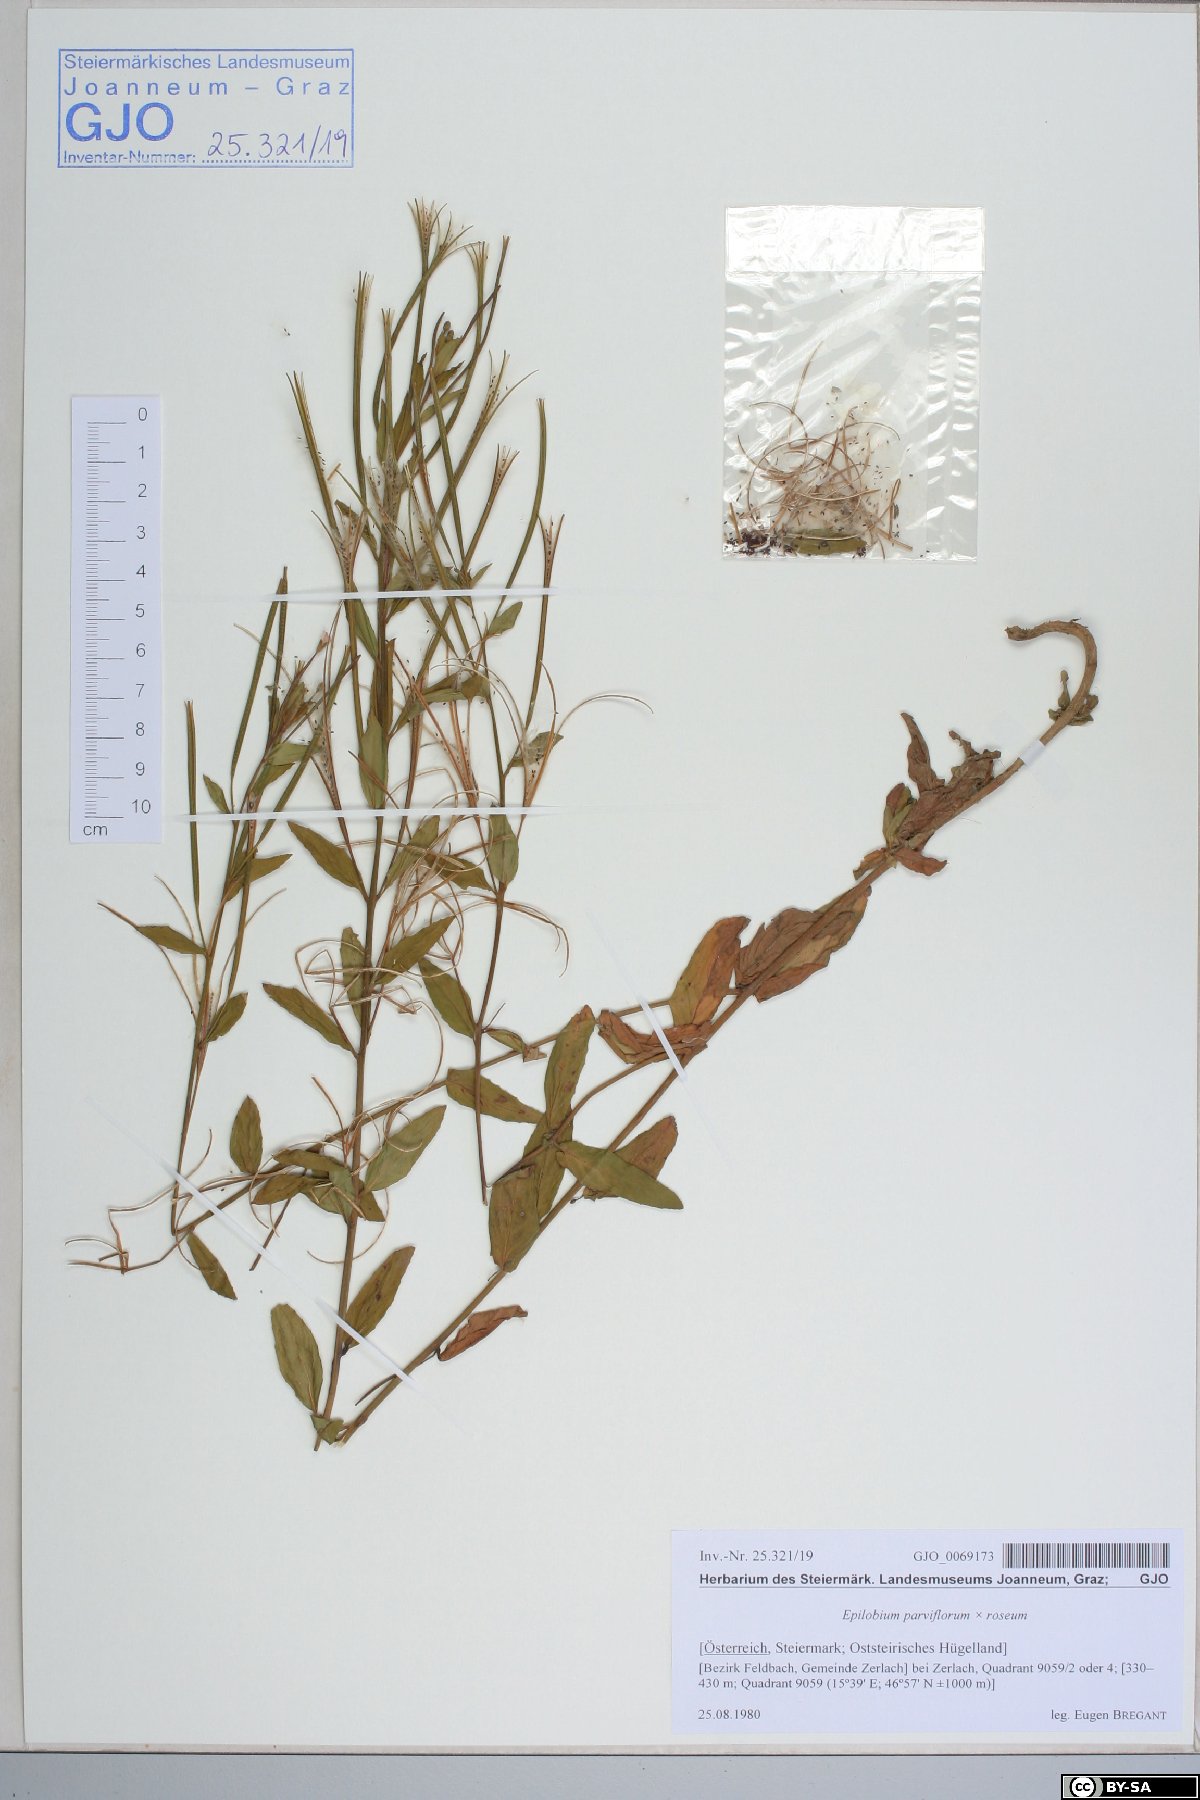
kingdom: Plantae
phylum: Tracheophyta
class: Magnoliopsida
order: Myrtales
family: Onagraceae
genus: Epilobium
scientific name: Epilobium parviflorum
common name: Hoary willowherb
